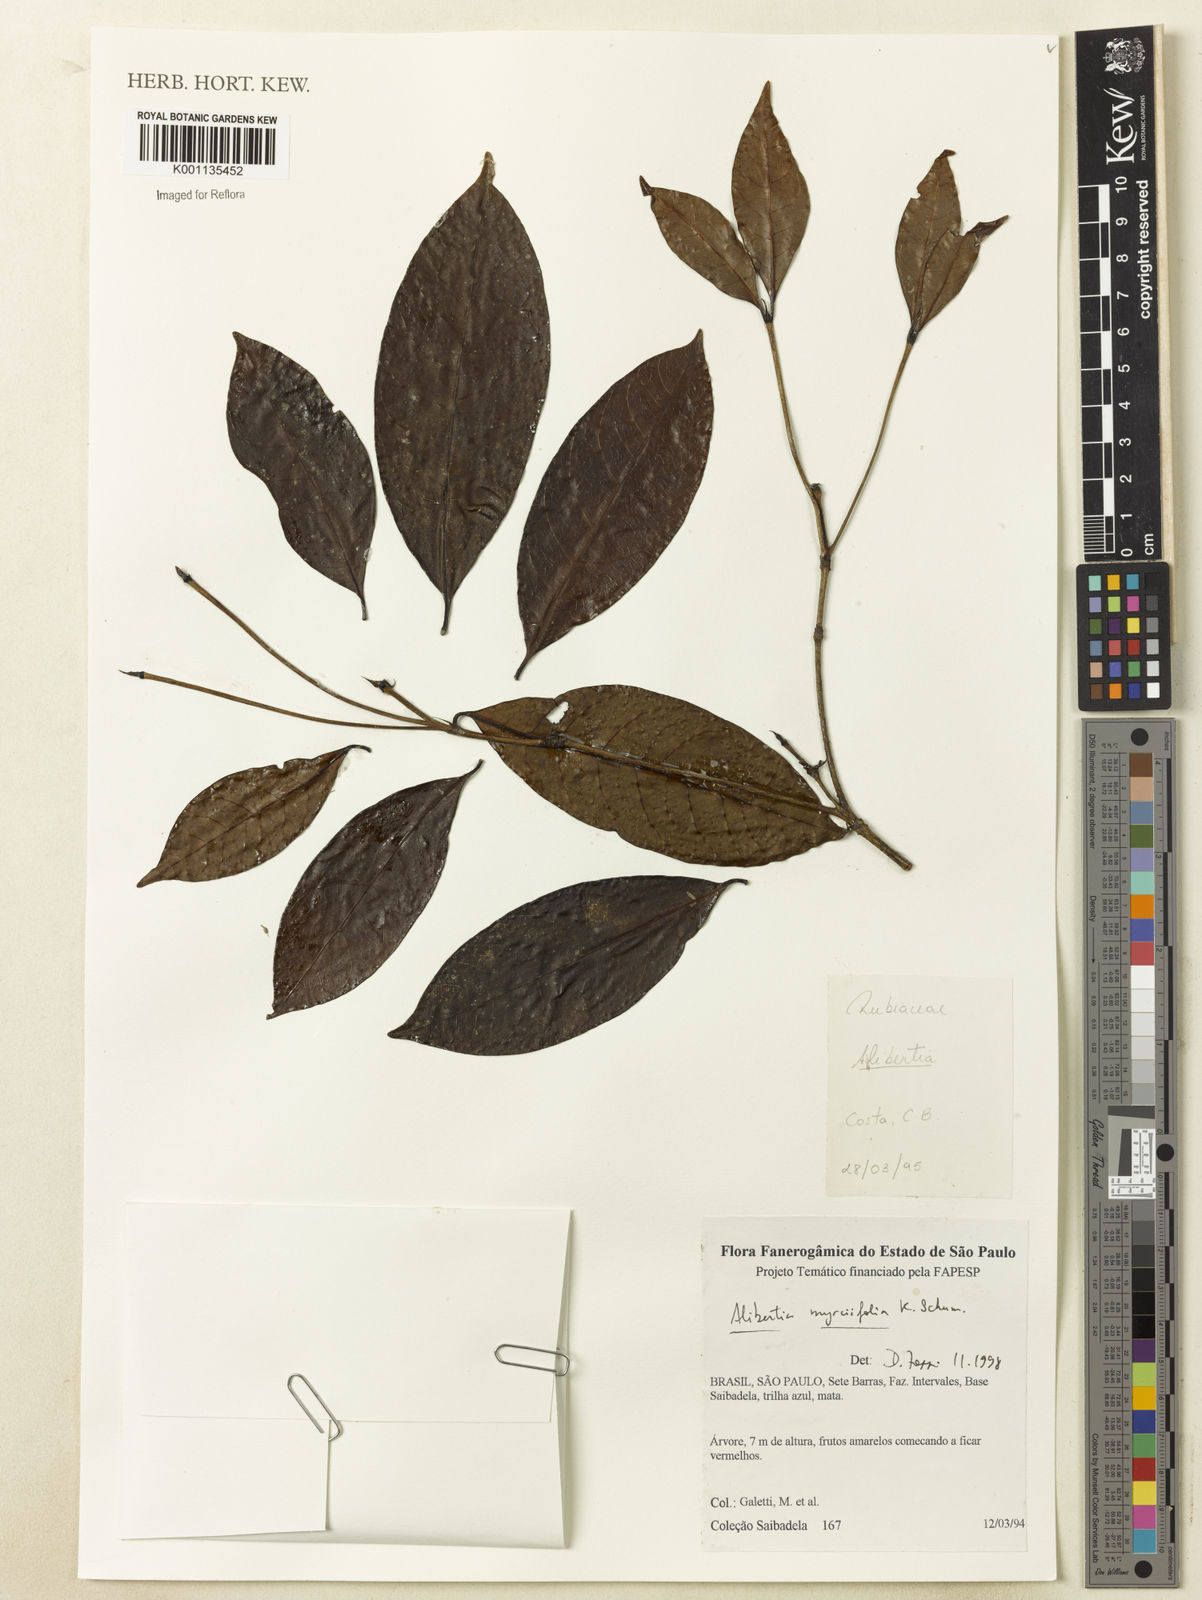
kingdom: Plantae
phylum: Tracheophyta
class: Magnoliopsida
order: Gentianales
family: Rubiaceae
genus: Cordiera
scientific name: Cordiera myrciifolia
